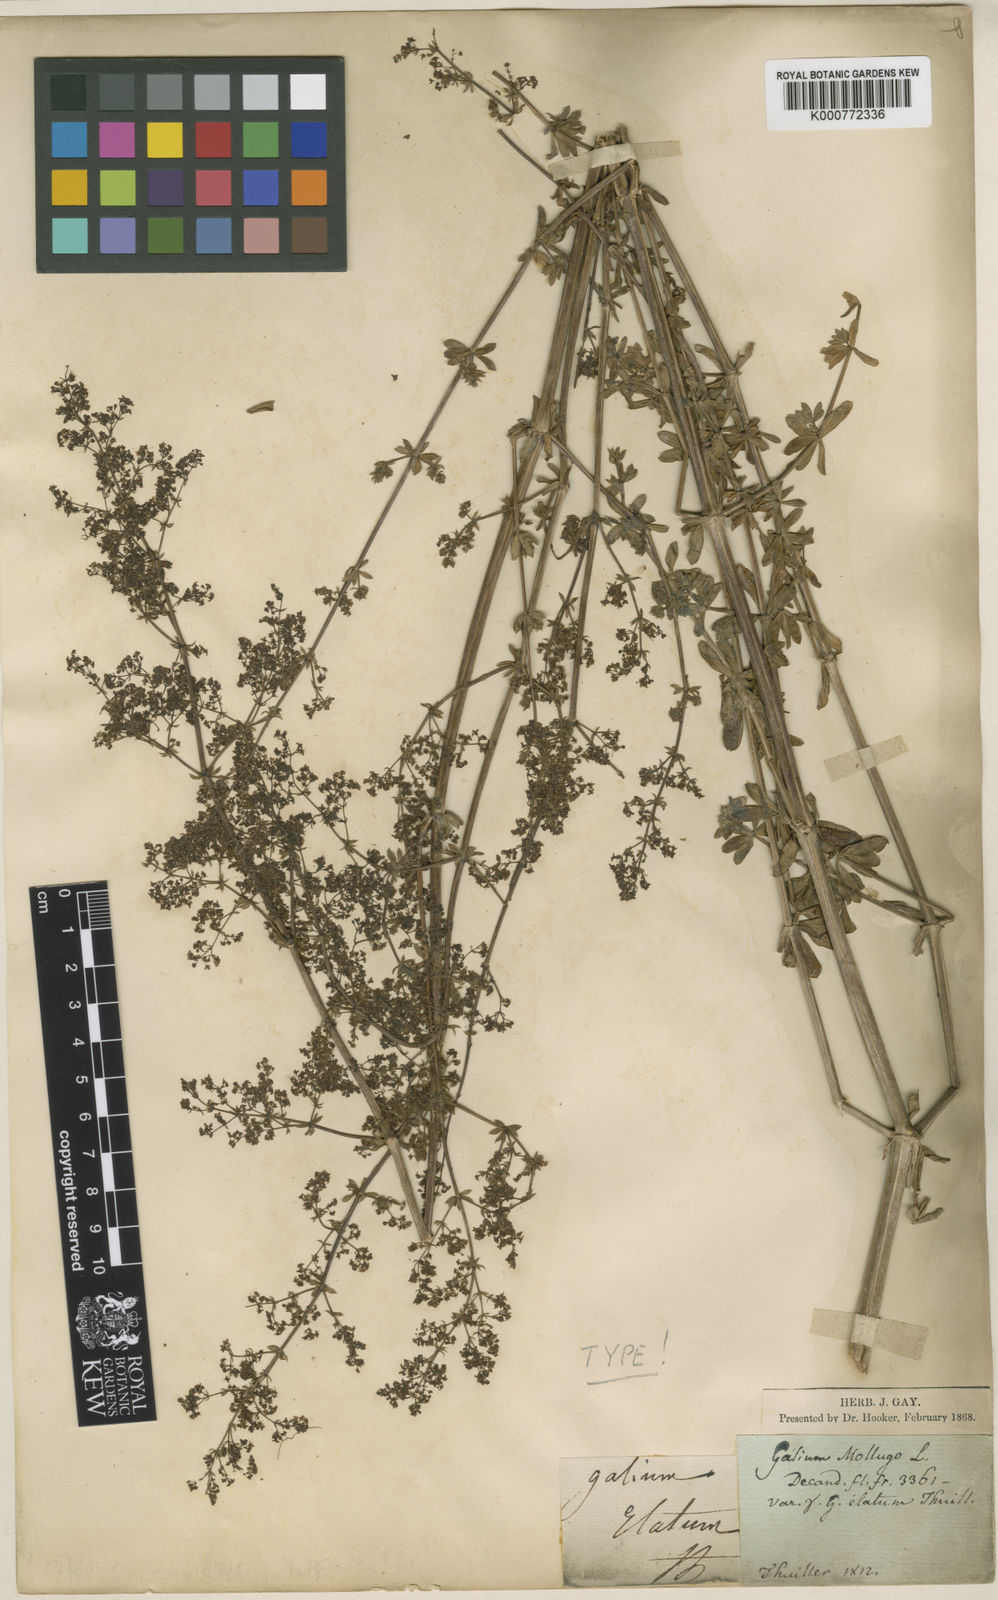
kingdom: Plantae
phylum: Tracheophyta
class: Magnoliopsida
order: Gentianales
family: Rubiaceae
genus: Galium
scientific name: Galium mollugo
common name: Hedge bedstraw
